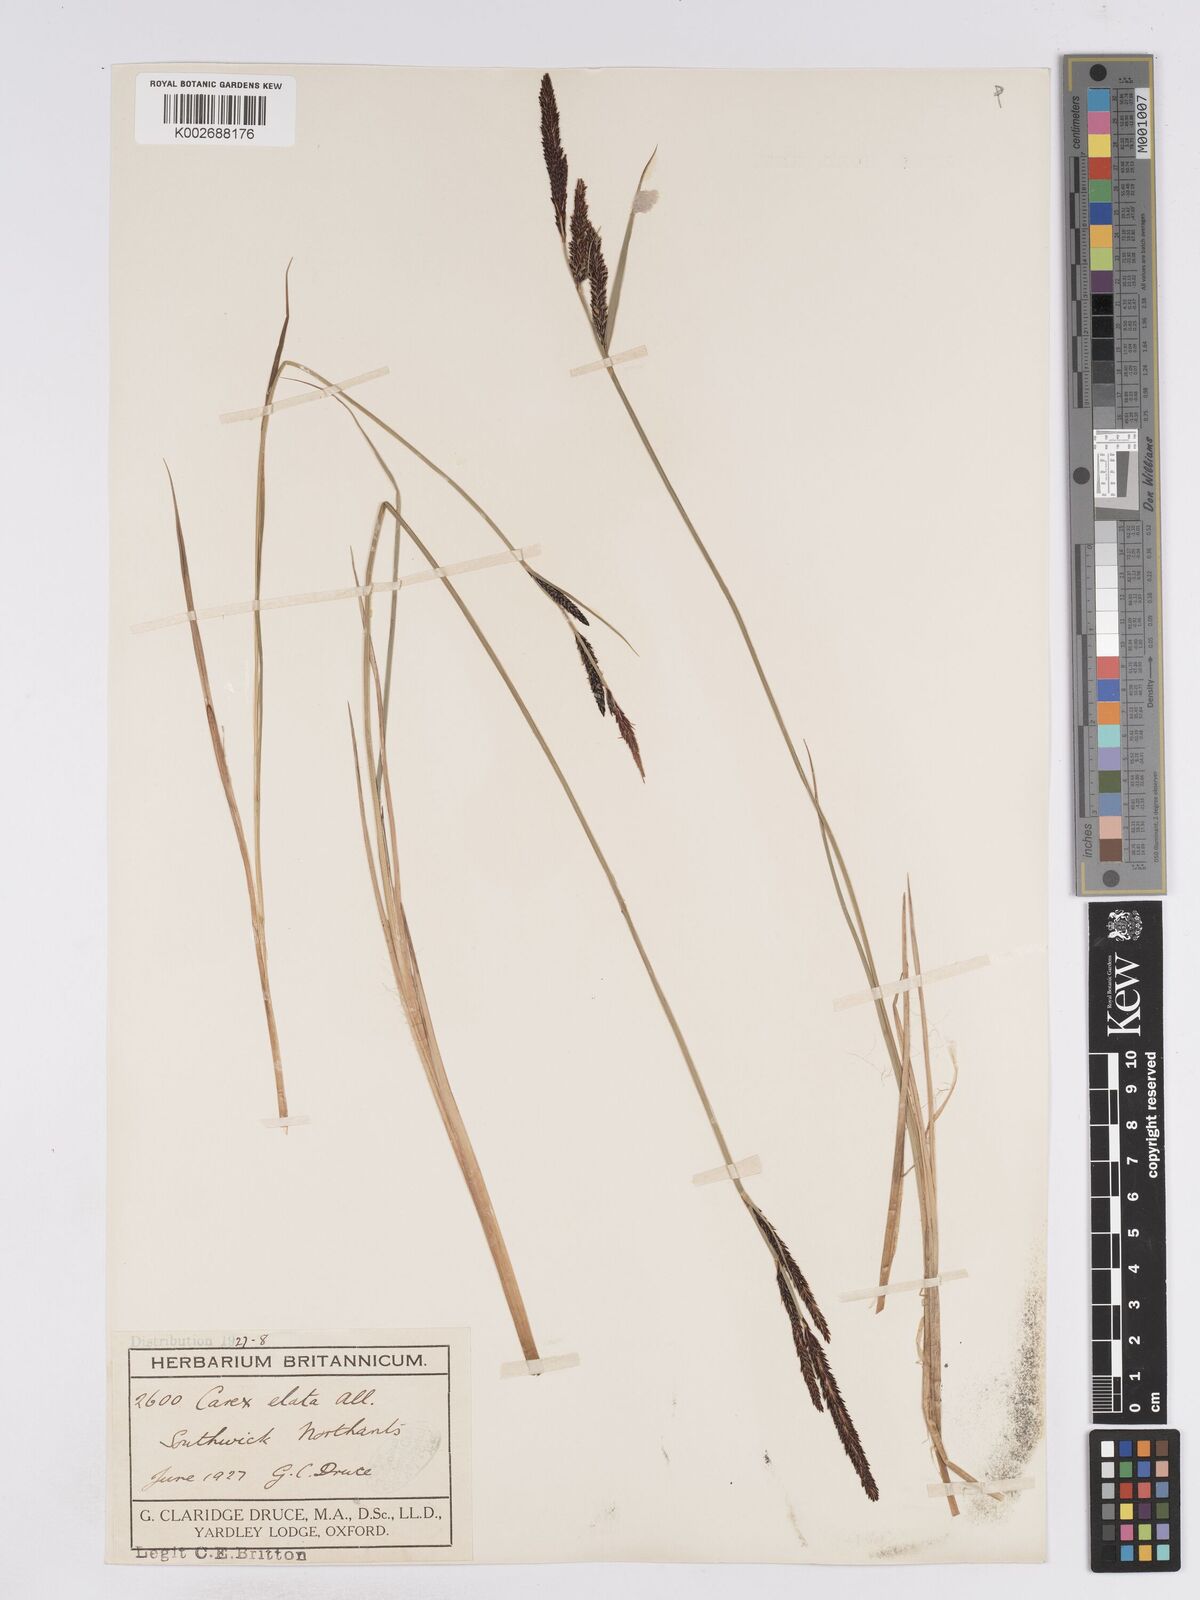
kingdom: Plantae
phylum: Tracheophyta
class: Liliopsida
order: Poales
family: Cyperaceae
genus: Carex
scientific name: Carex elata
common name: Tufted sedge
